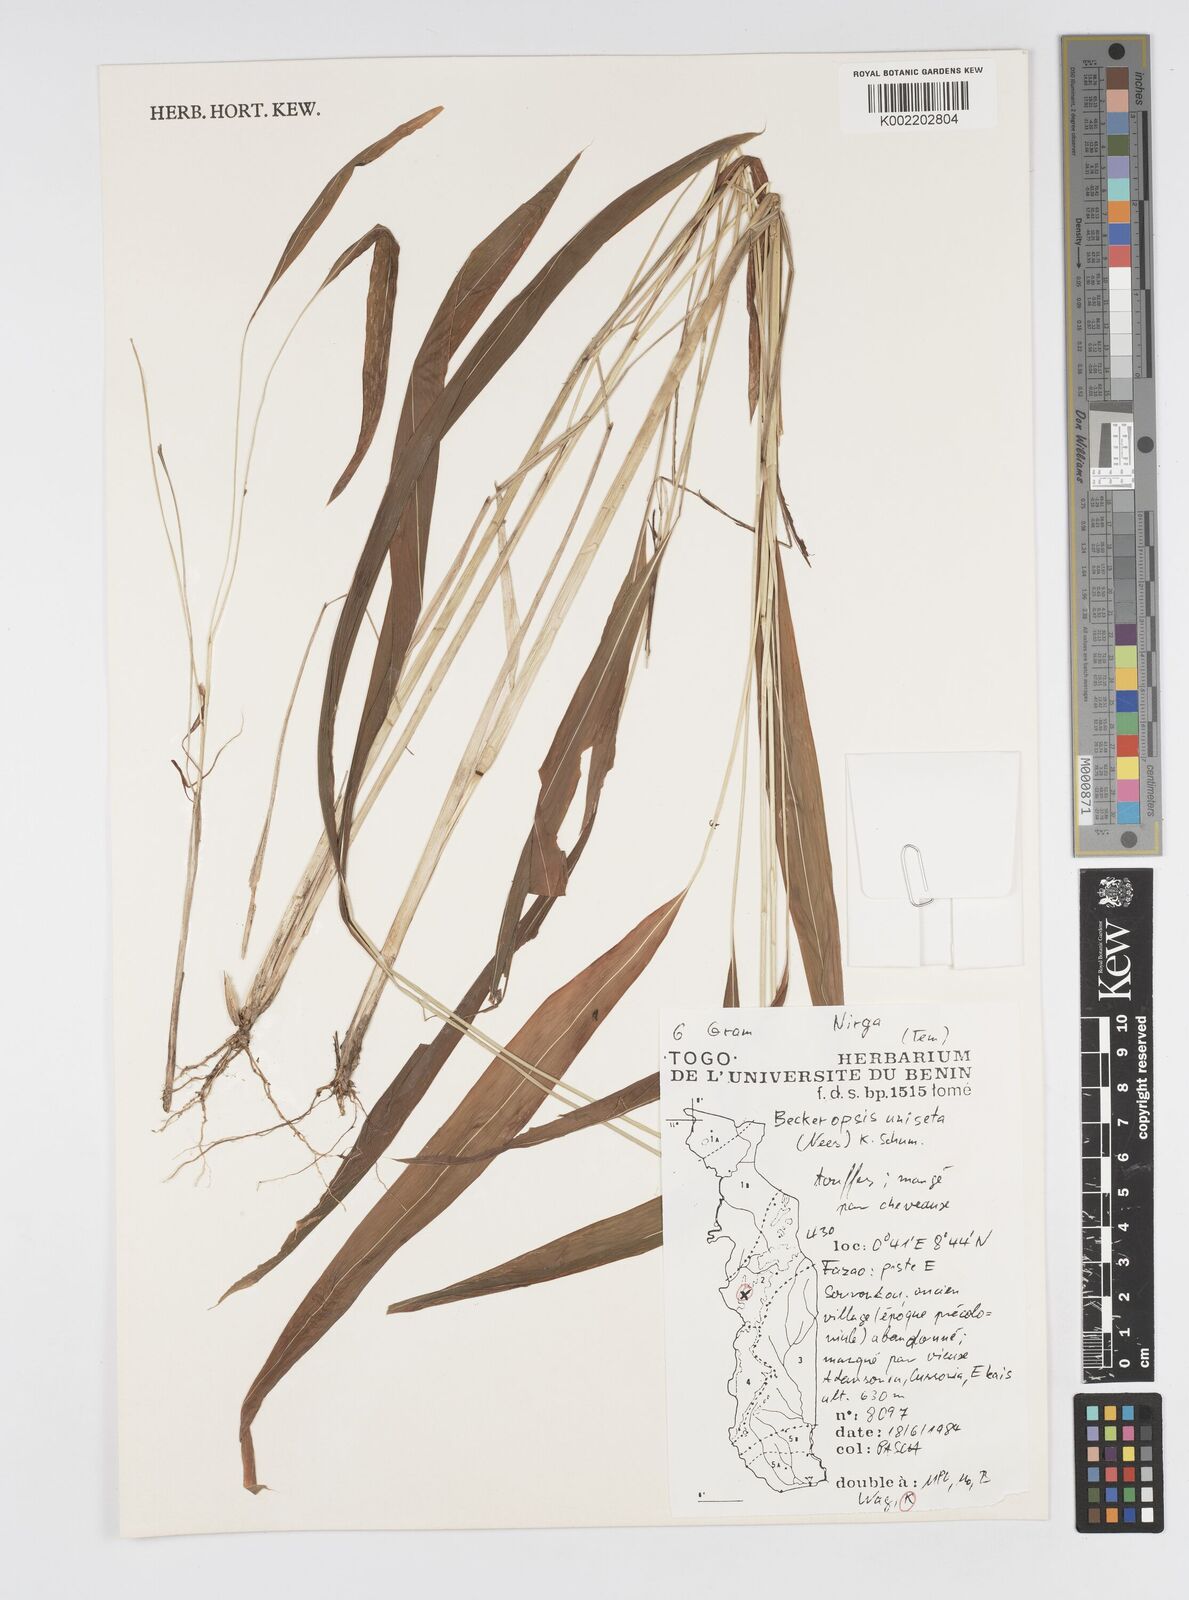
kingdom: Plantae
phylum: Tracheophyta
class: Liliopsida
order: Poales
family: Poaceae
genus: Cenchrus
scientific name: Cenchrus unisetus
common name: Natal grass
